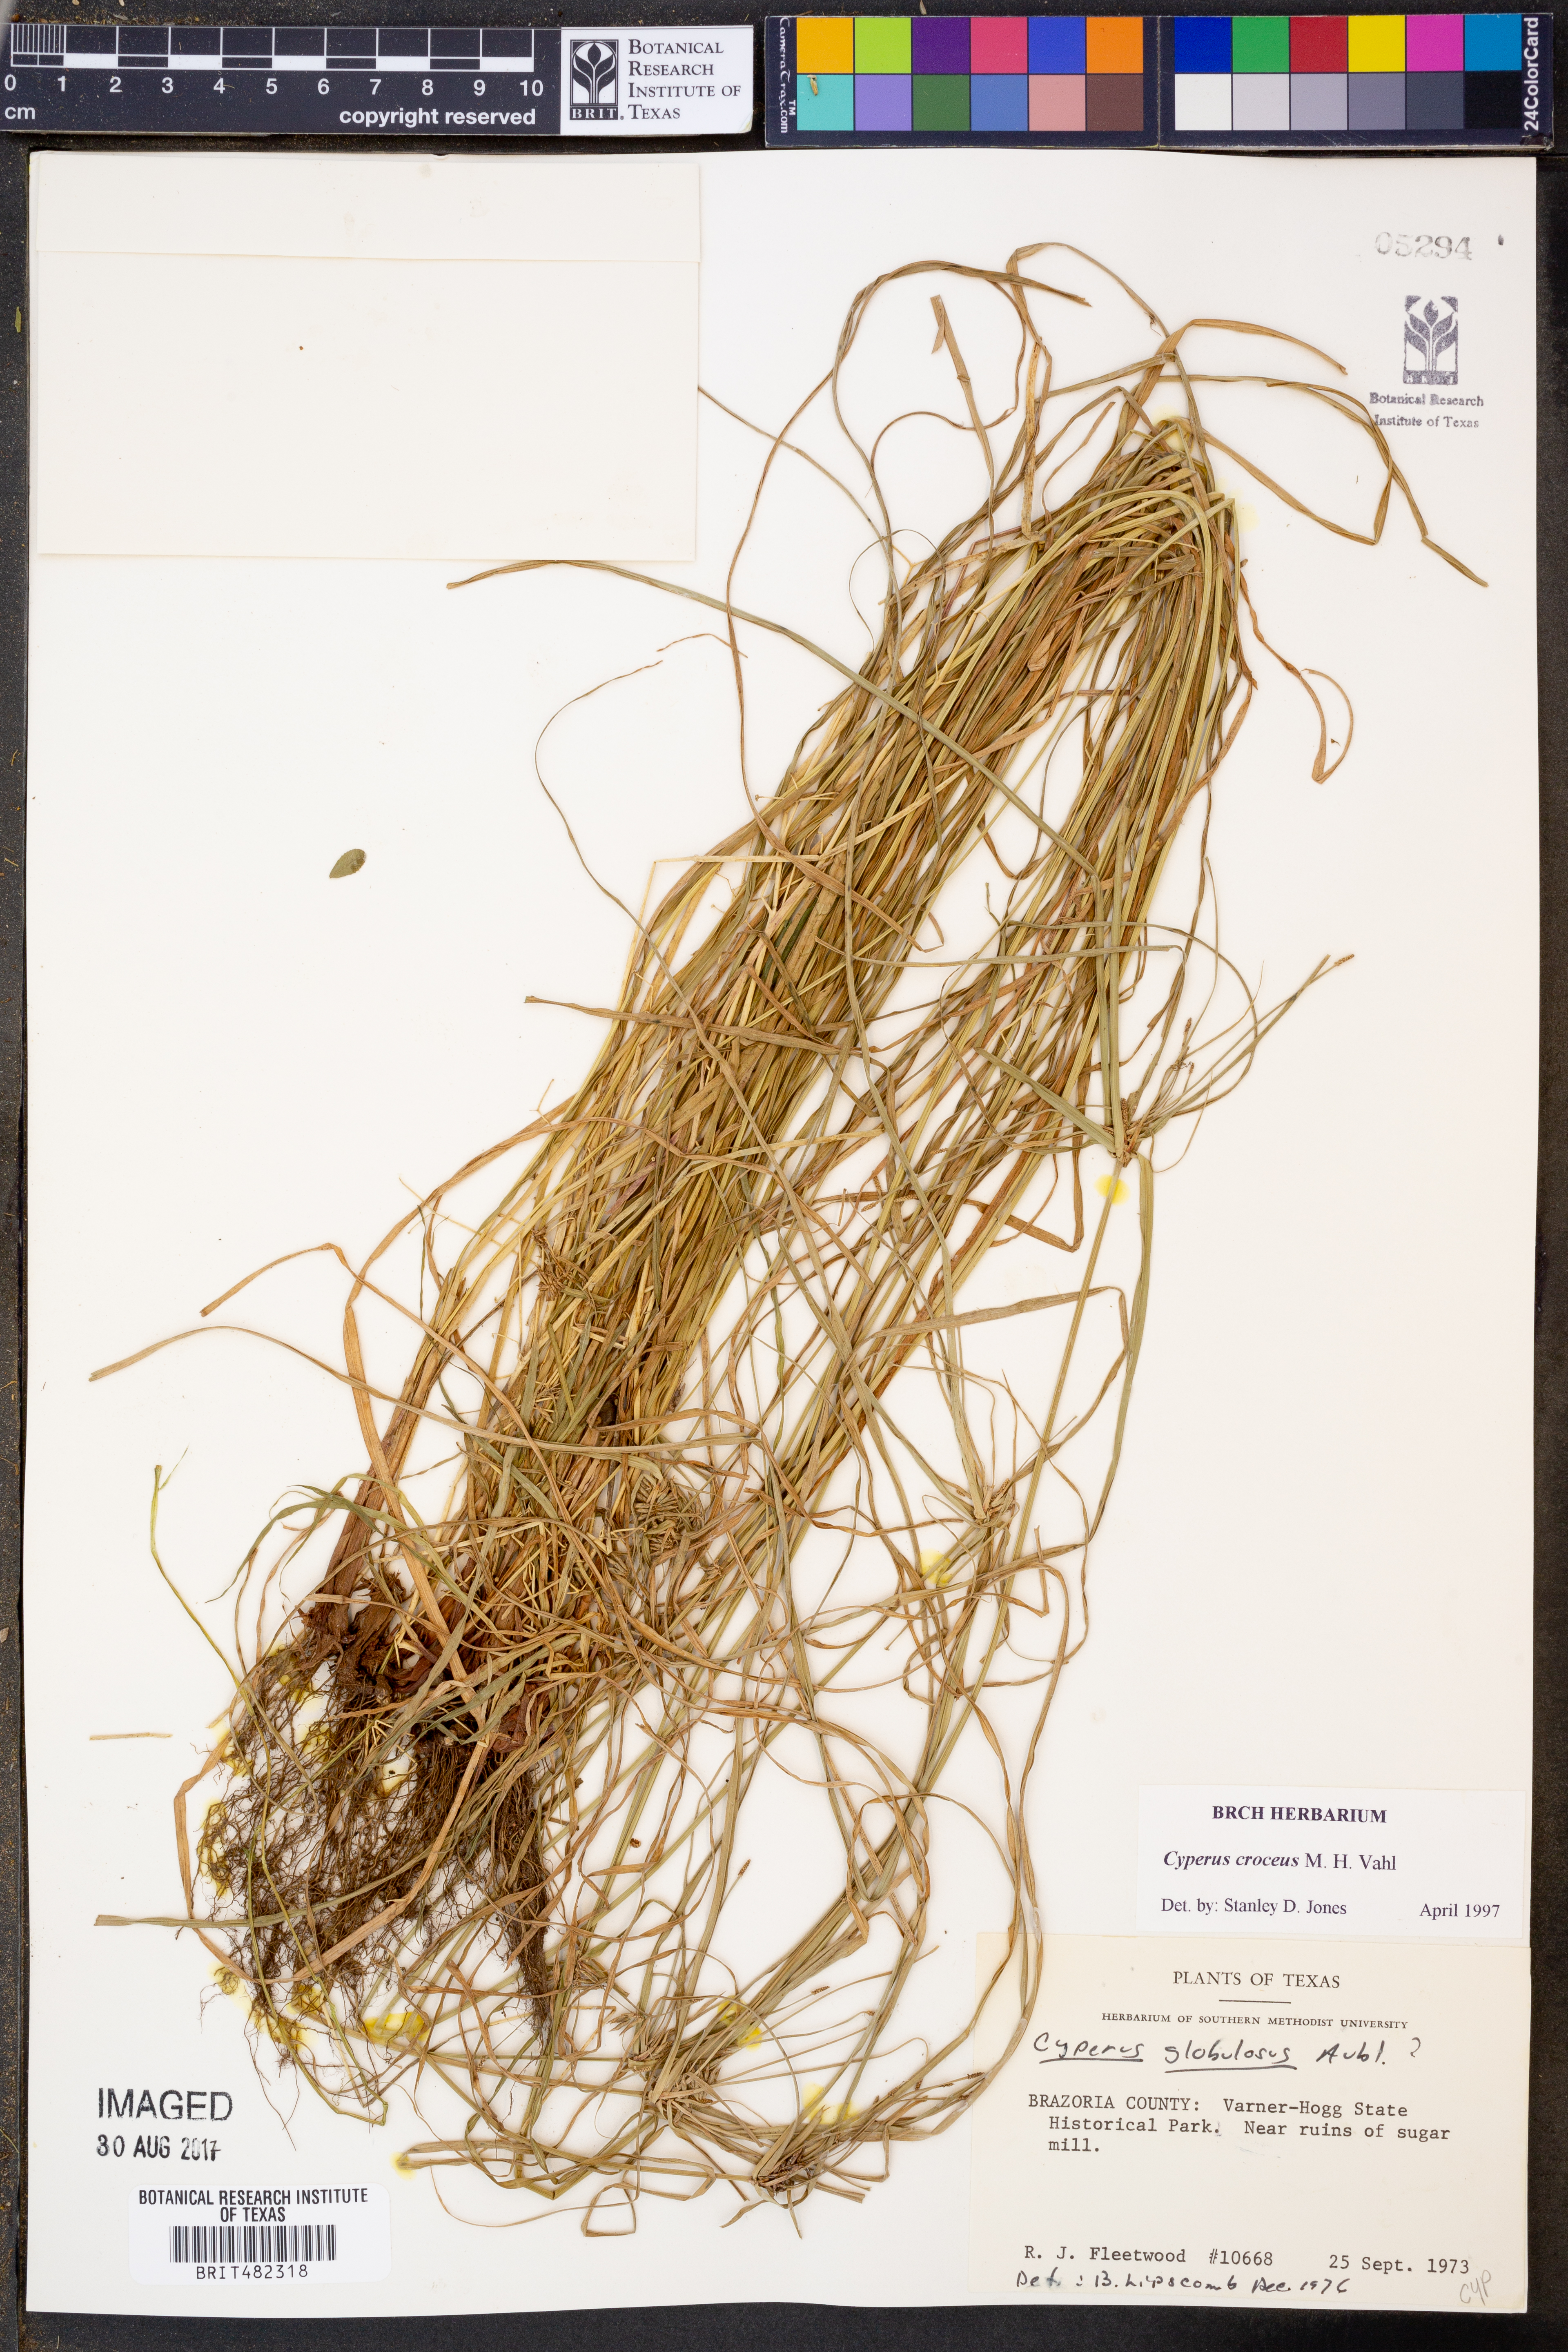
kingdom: Plantae
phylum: Tracheophyta
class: Liliopsida
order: Poales
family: Cyperaceae
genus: Cyperus
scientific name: Cyperus croceus
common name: Baldwin's flatsedge
